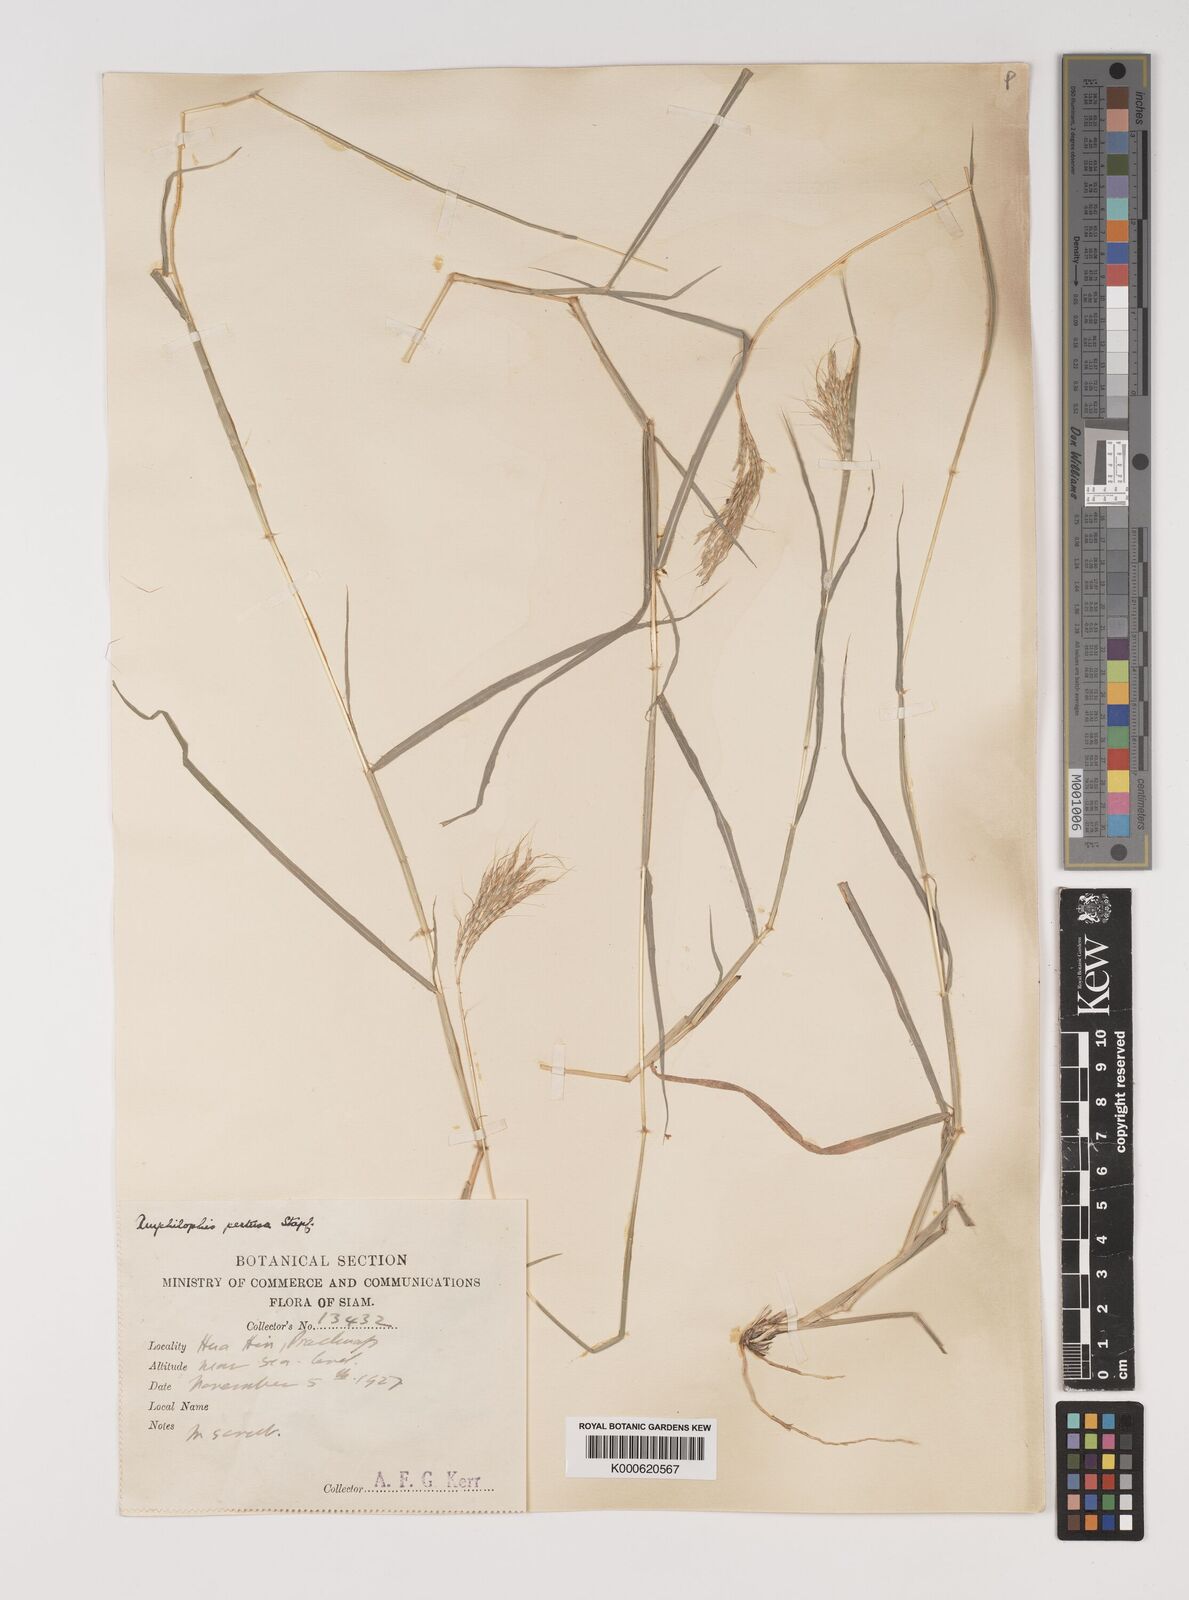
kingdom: Plantae
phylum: Tracheophyta
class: Liliopsida
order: Poales
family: Poaceae
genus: Bothriochloa
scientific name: Bothriochloa pertusa
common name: Pitted beardgrass
